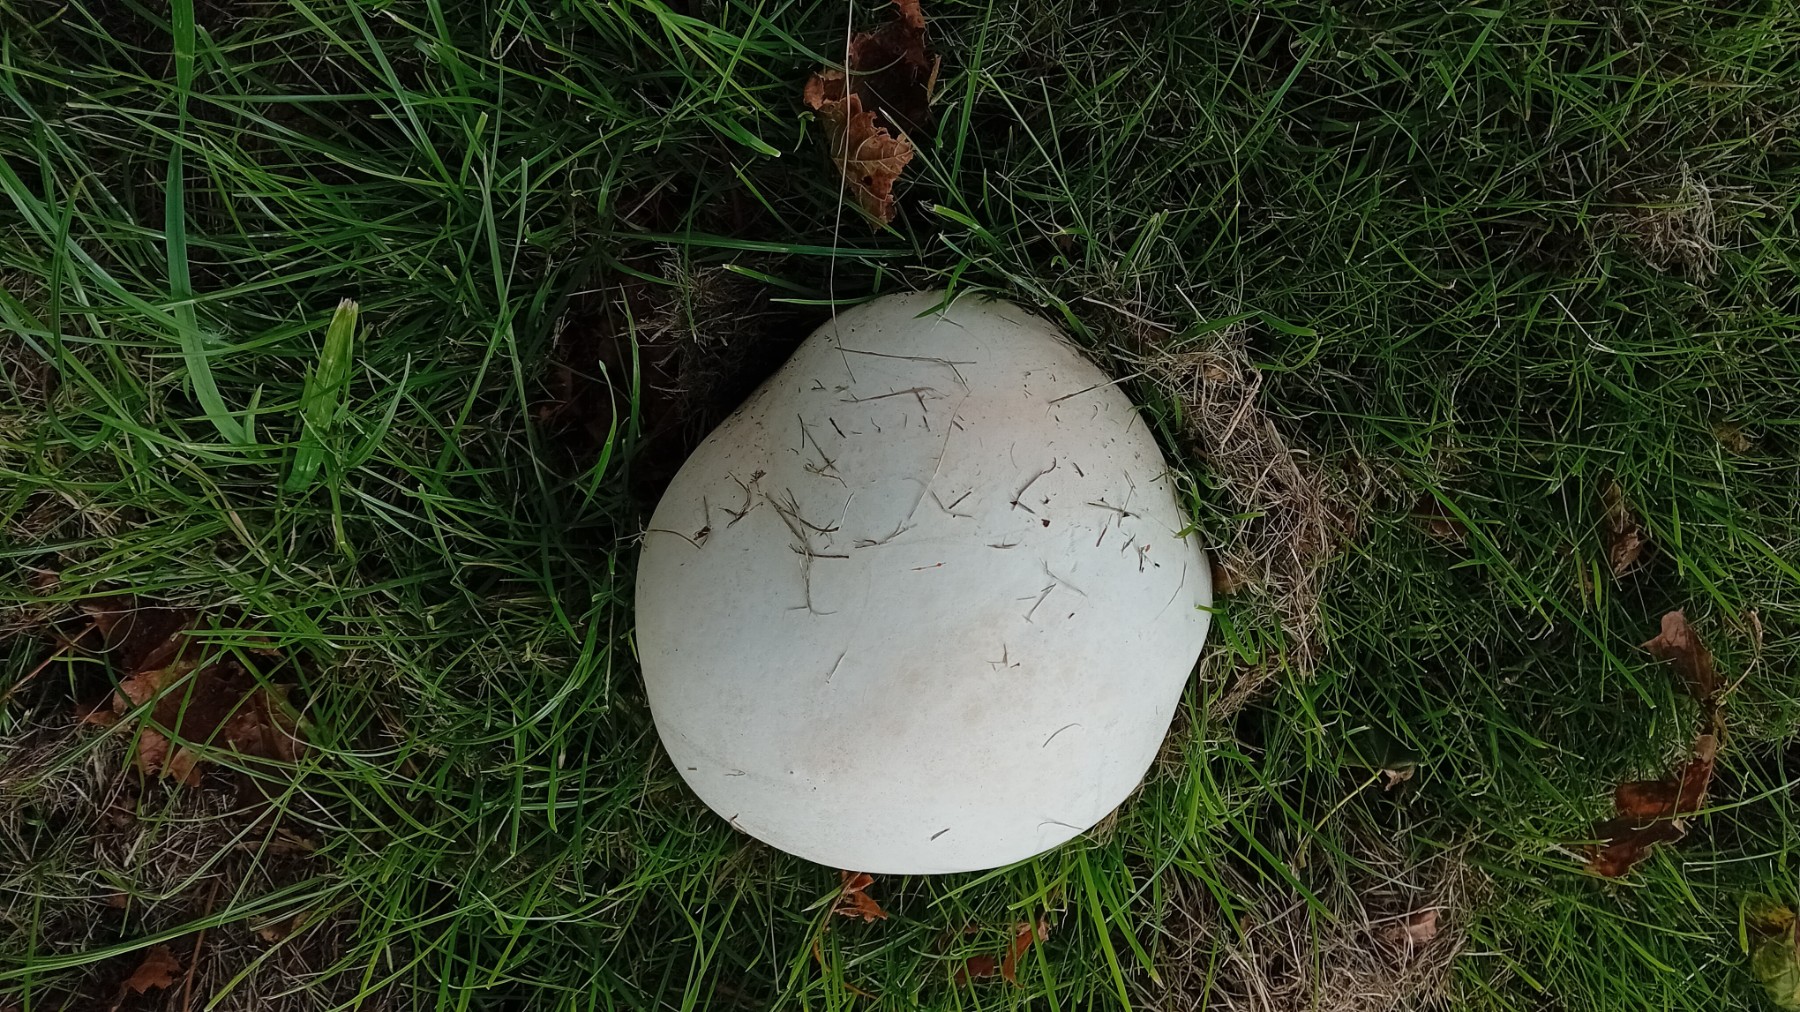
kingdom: Fungi
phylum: Basidiomycota
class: Agaricomycetes
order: Agaricales
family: Lycoperdaceae
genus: Calvatia
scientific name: Calvatia gigantea
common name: kæmpestøvbold
